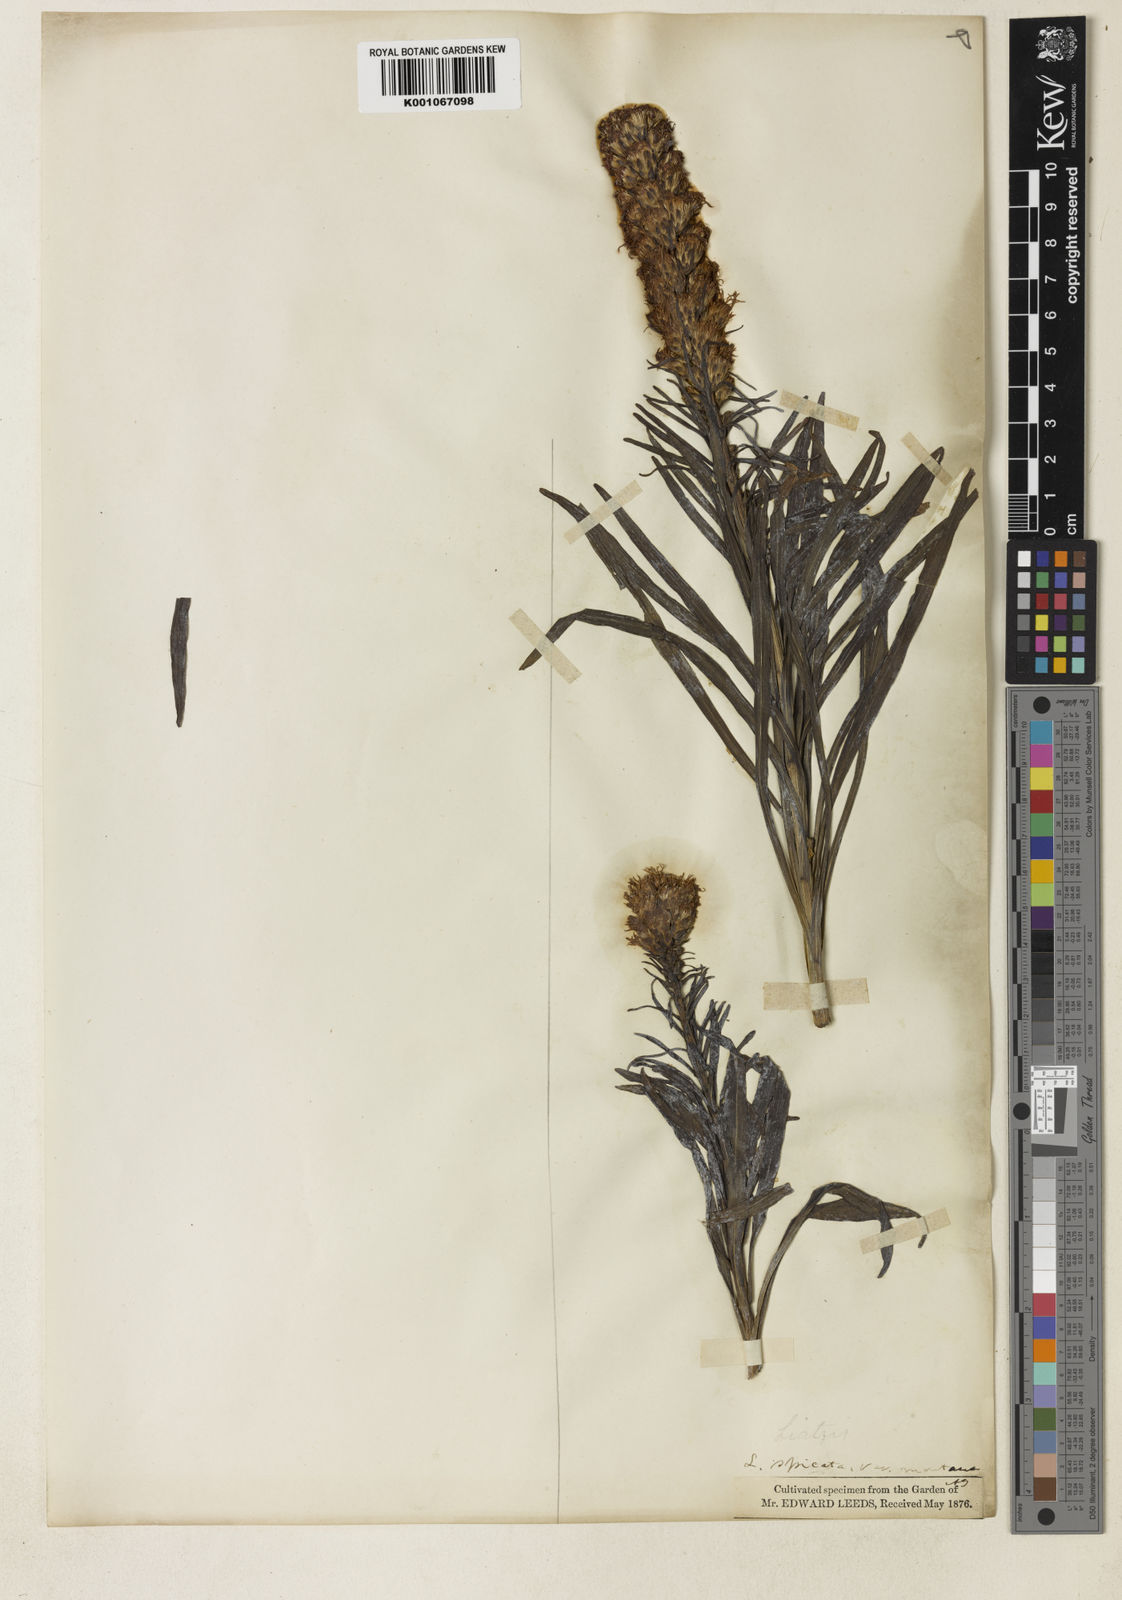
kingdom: Plantae
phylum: Tracheophyta
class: Magnoliopsida
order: Asterales
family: Asteraceae
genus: Liatris
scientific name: Liatris spicata
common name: Florist gayfeather
